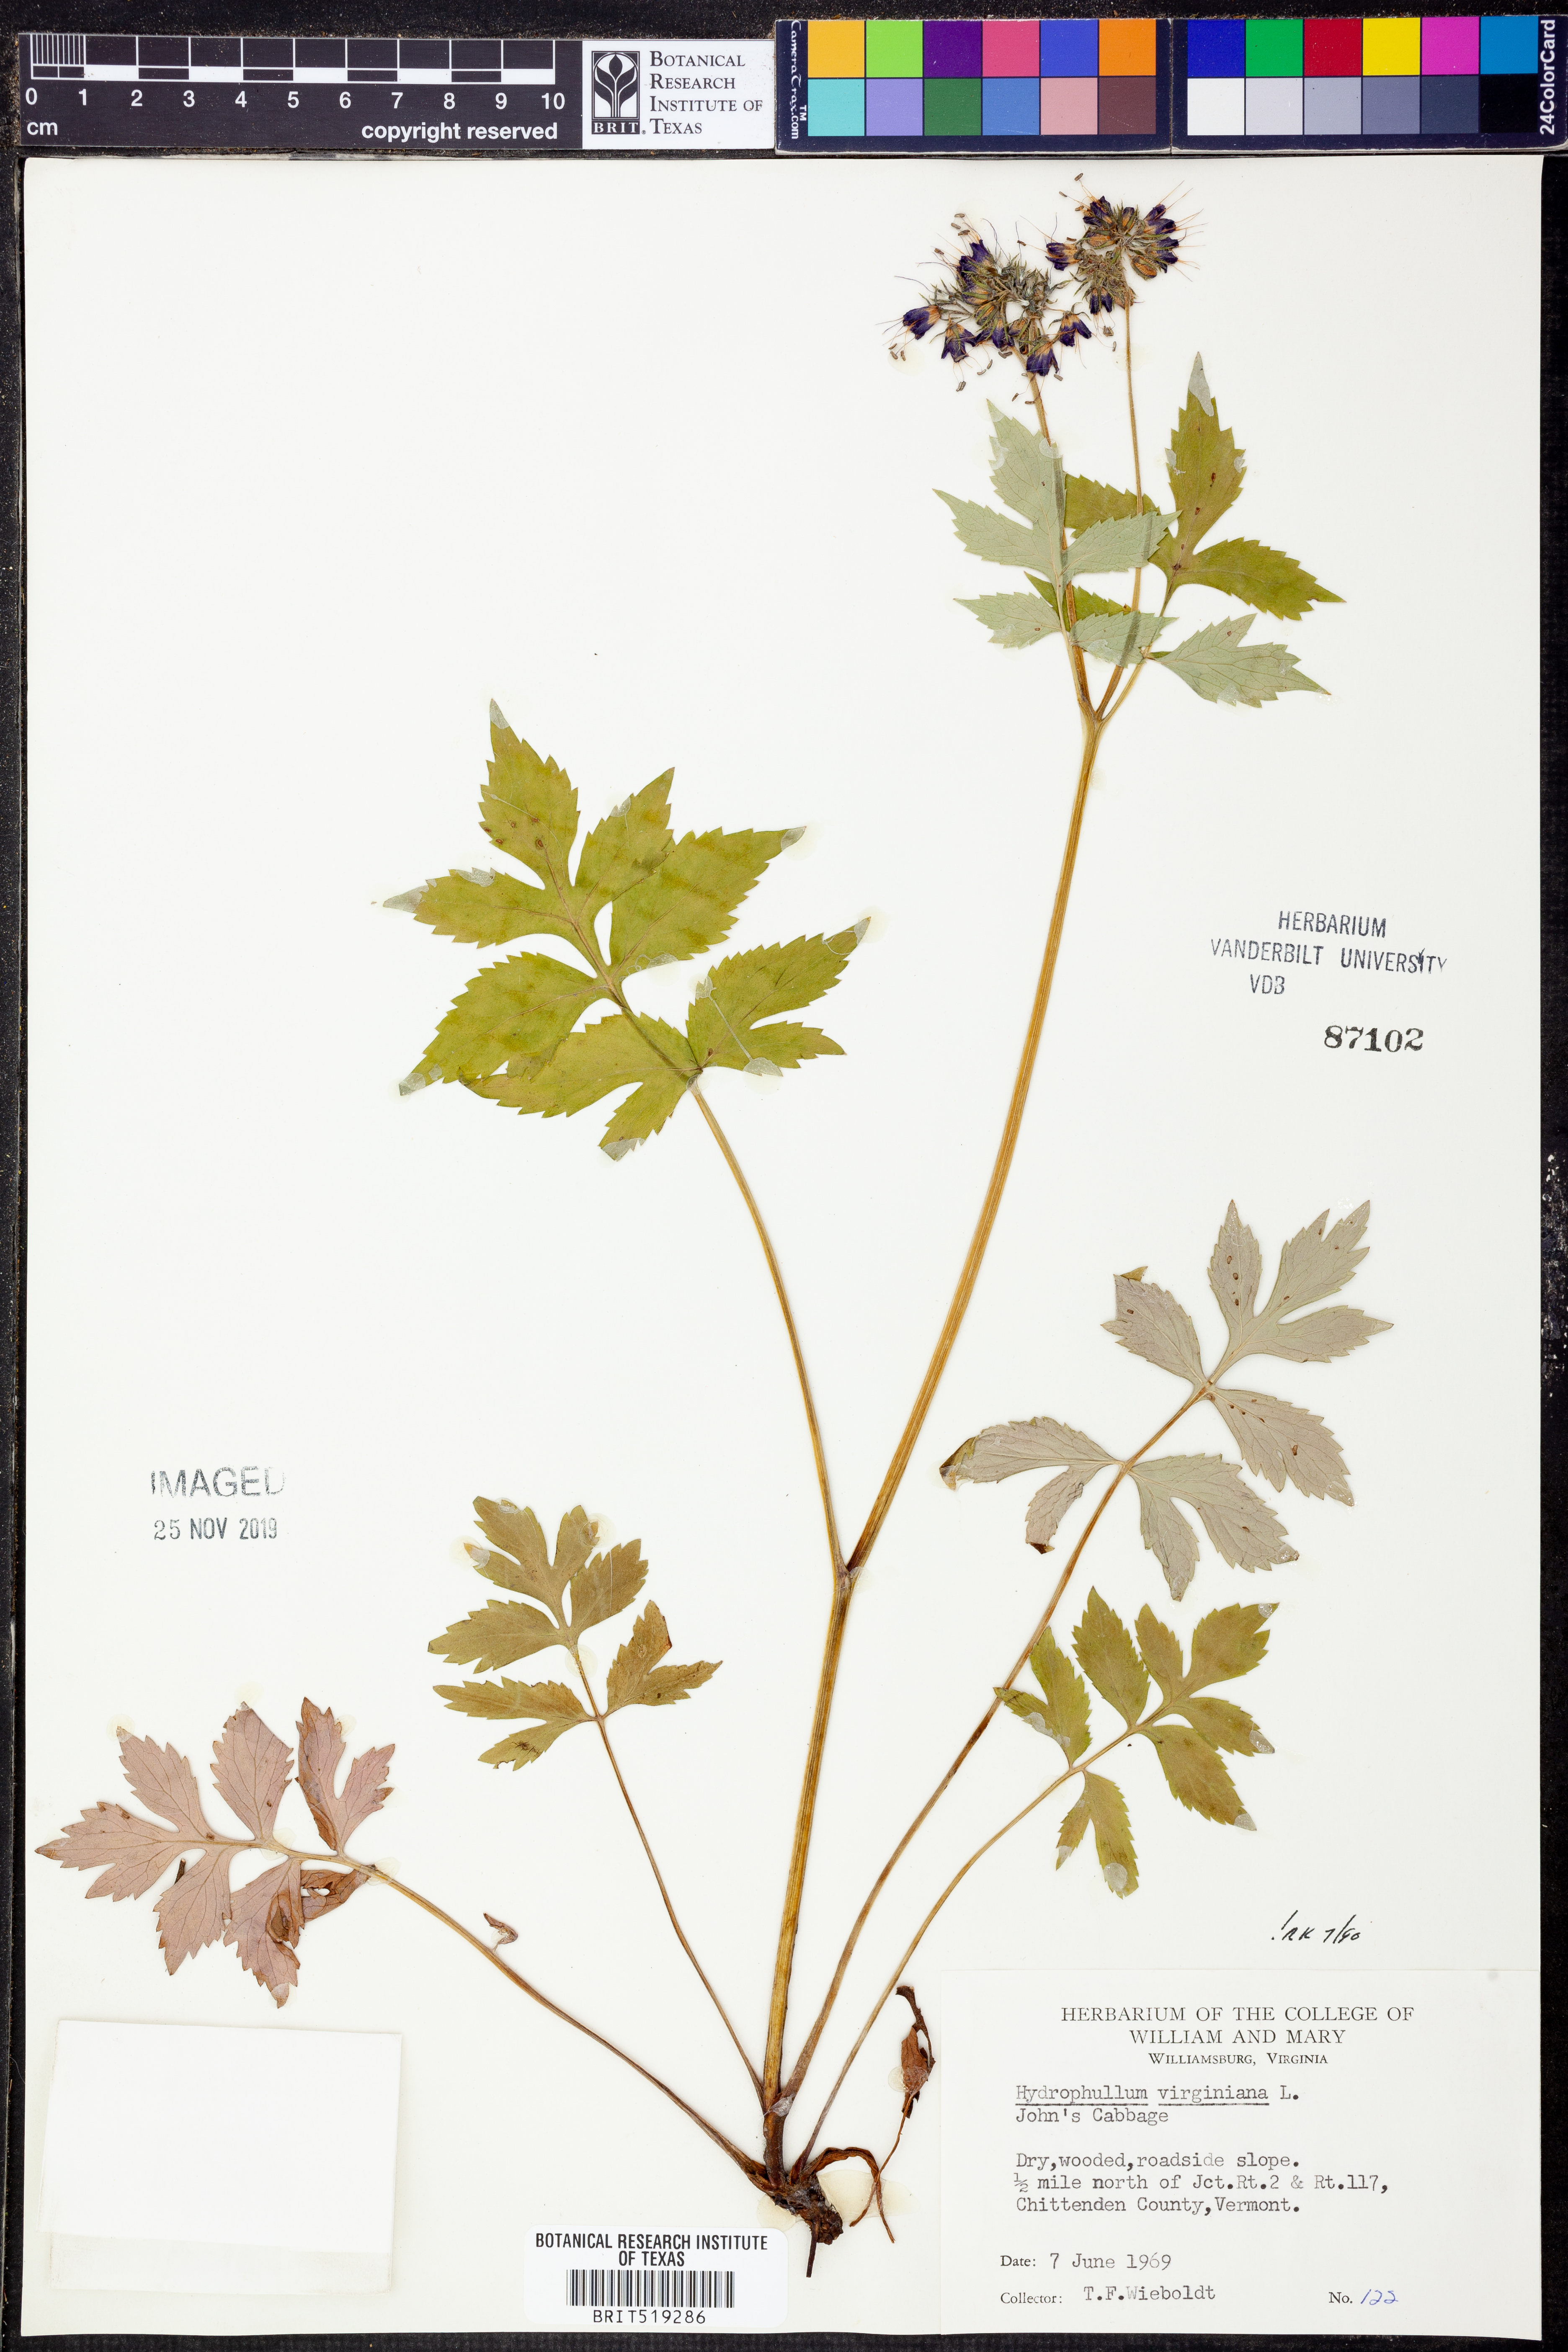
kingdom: Plantae
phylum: Tracheophyta
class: Magnoliopsida
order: Boraginales
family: Hydrophyllaceae
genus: Hydrophyllum
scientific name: Hydrophyllum virginianum
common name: Virginia waterleaf
